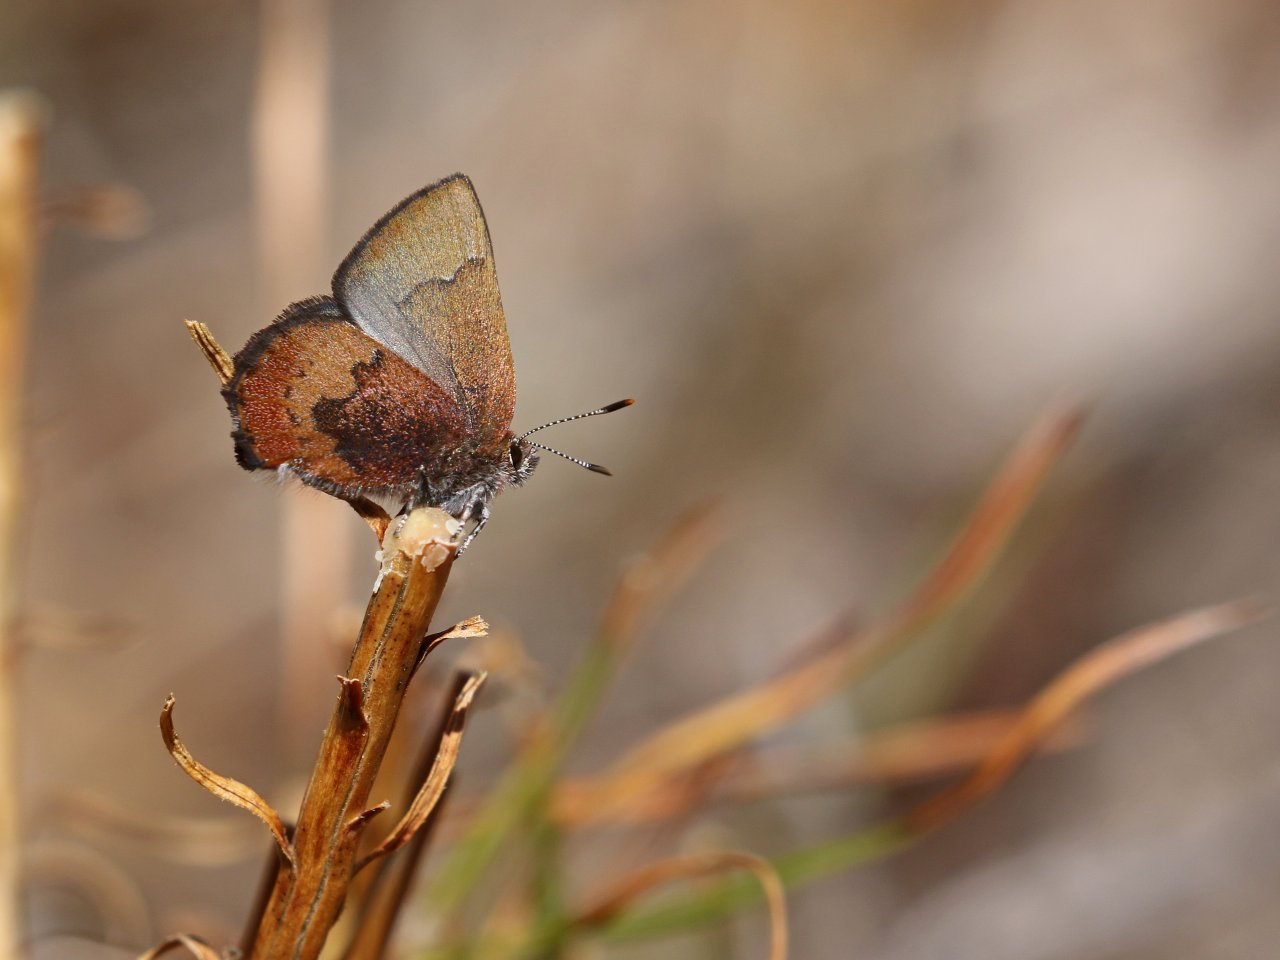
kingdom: Animalia
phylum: Arthropoda
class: Insecta
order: Lepidoptera
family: Lycaenidae
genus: Incisalia
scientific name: Incisalia irioides
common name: Brown Elfin
